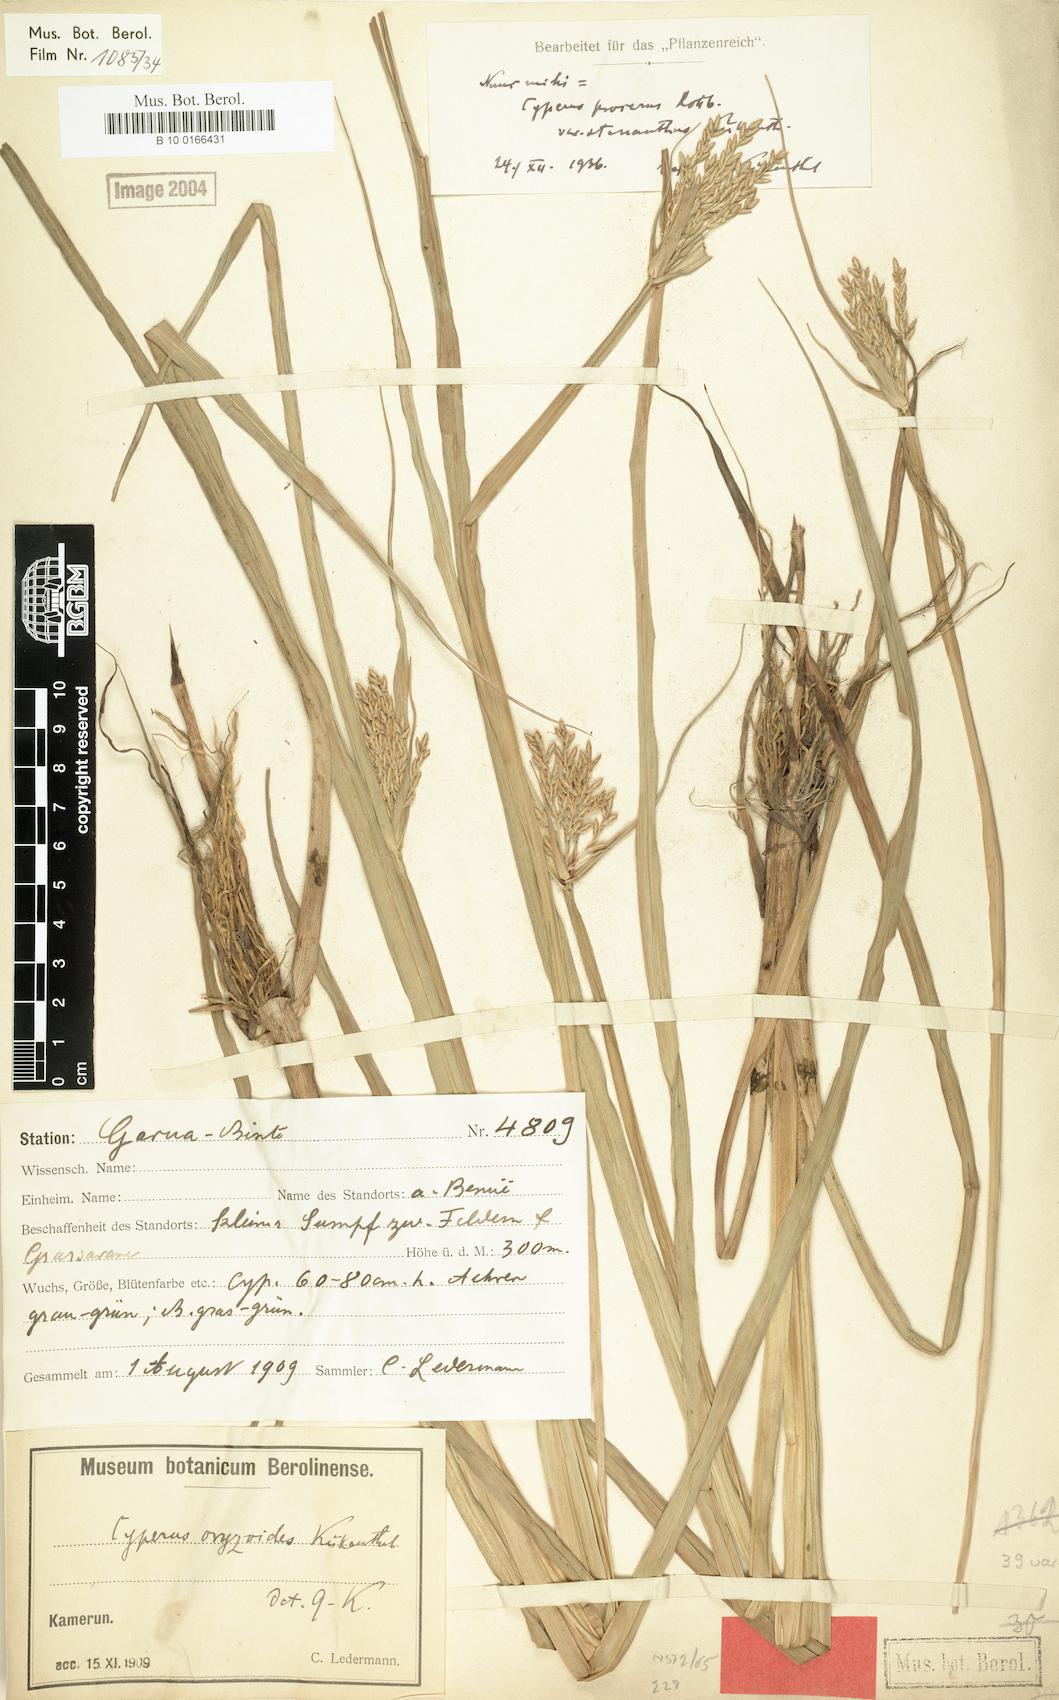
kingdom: Plantae
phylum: Tracheophyta
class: Liliopsida
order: Poales
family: Cyperaceae
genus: Cyperus
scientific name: Cyperus procerus
